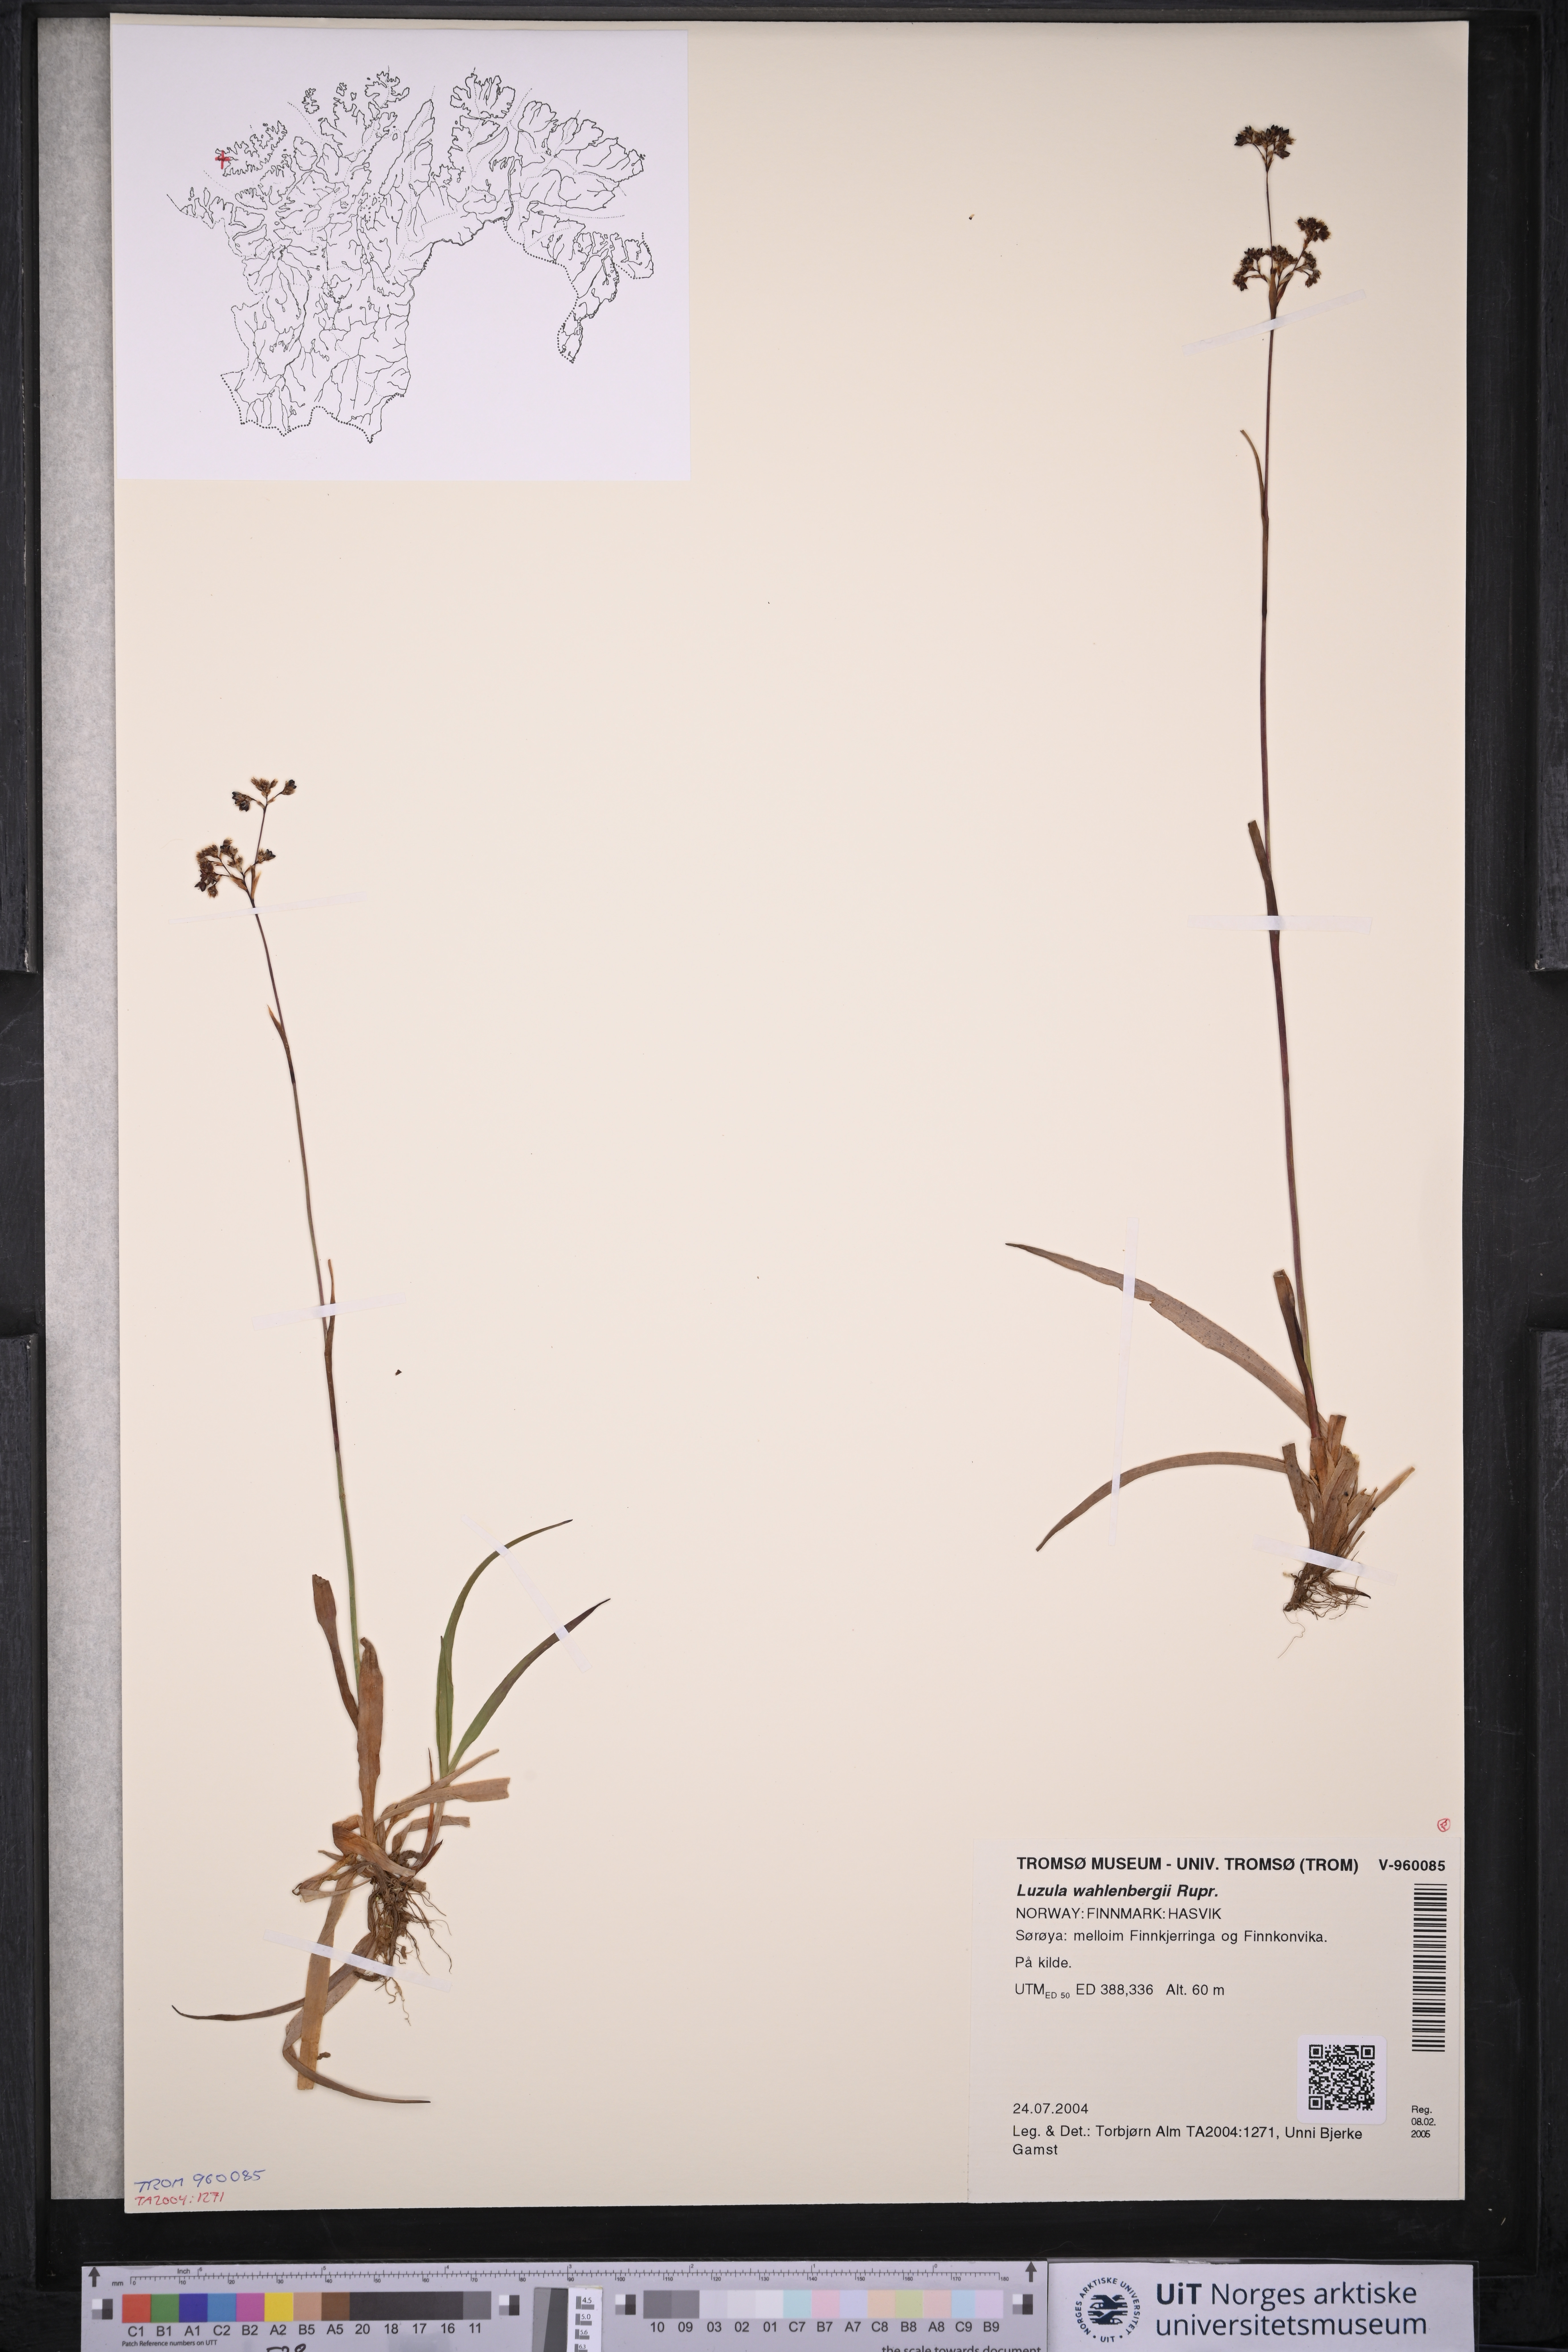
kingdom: Plantae
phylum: Tracheophyta
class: Liliopsida
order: Poales
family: Juncaceae
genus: Luzula
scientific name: Luzula wahlenbergii
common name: Wahlenberg's wood-rush
